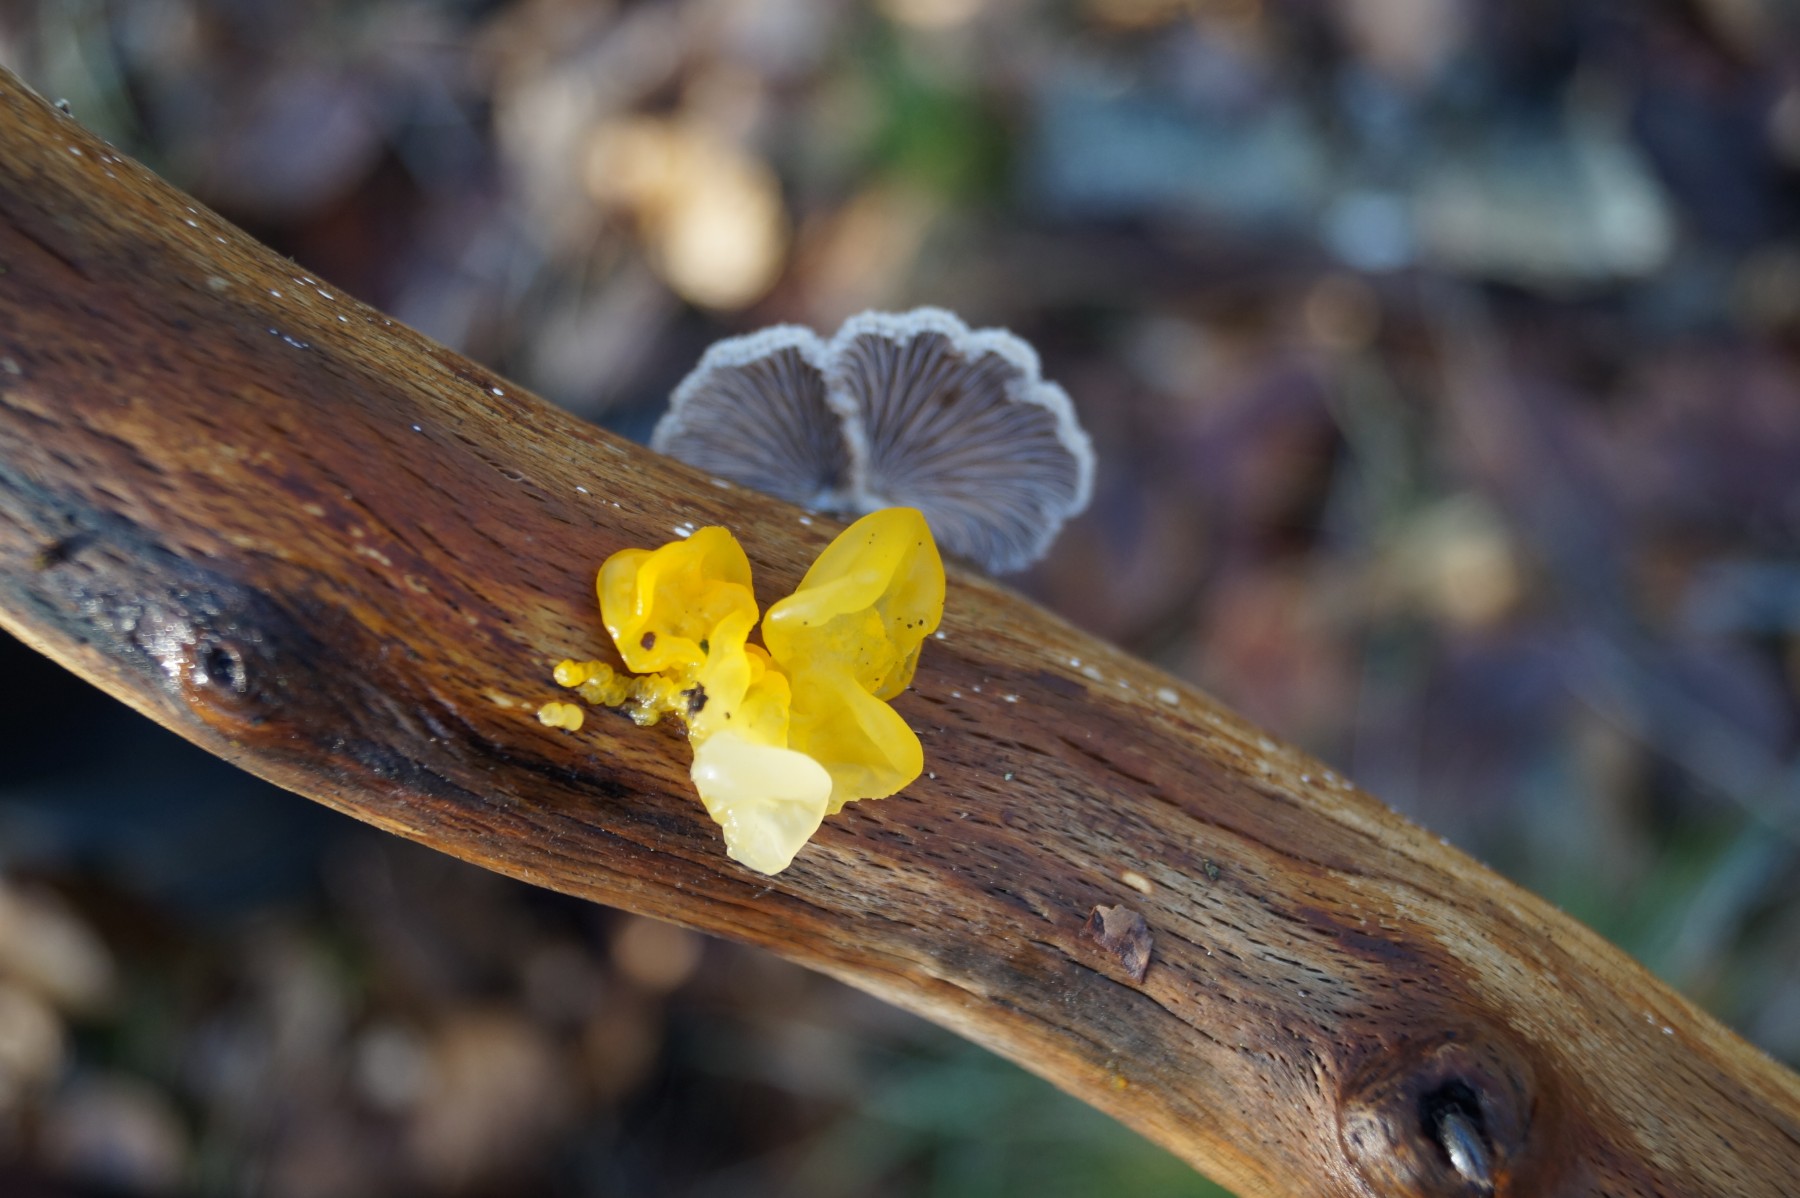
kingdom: Fungi
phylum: Basidiomycota
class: Agaricomycetes
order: Agaricales
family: Schizophyllaceae
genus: Schizophyllum
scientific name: Schizophyllum commune
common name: kløvblad
